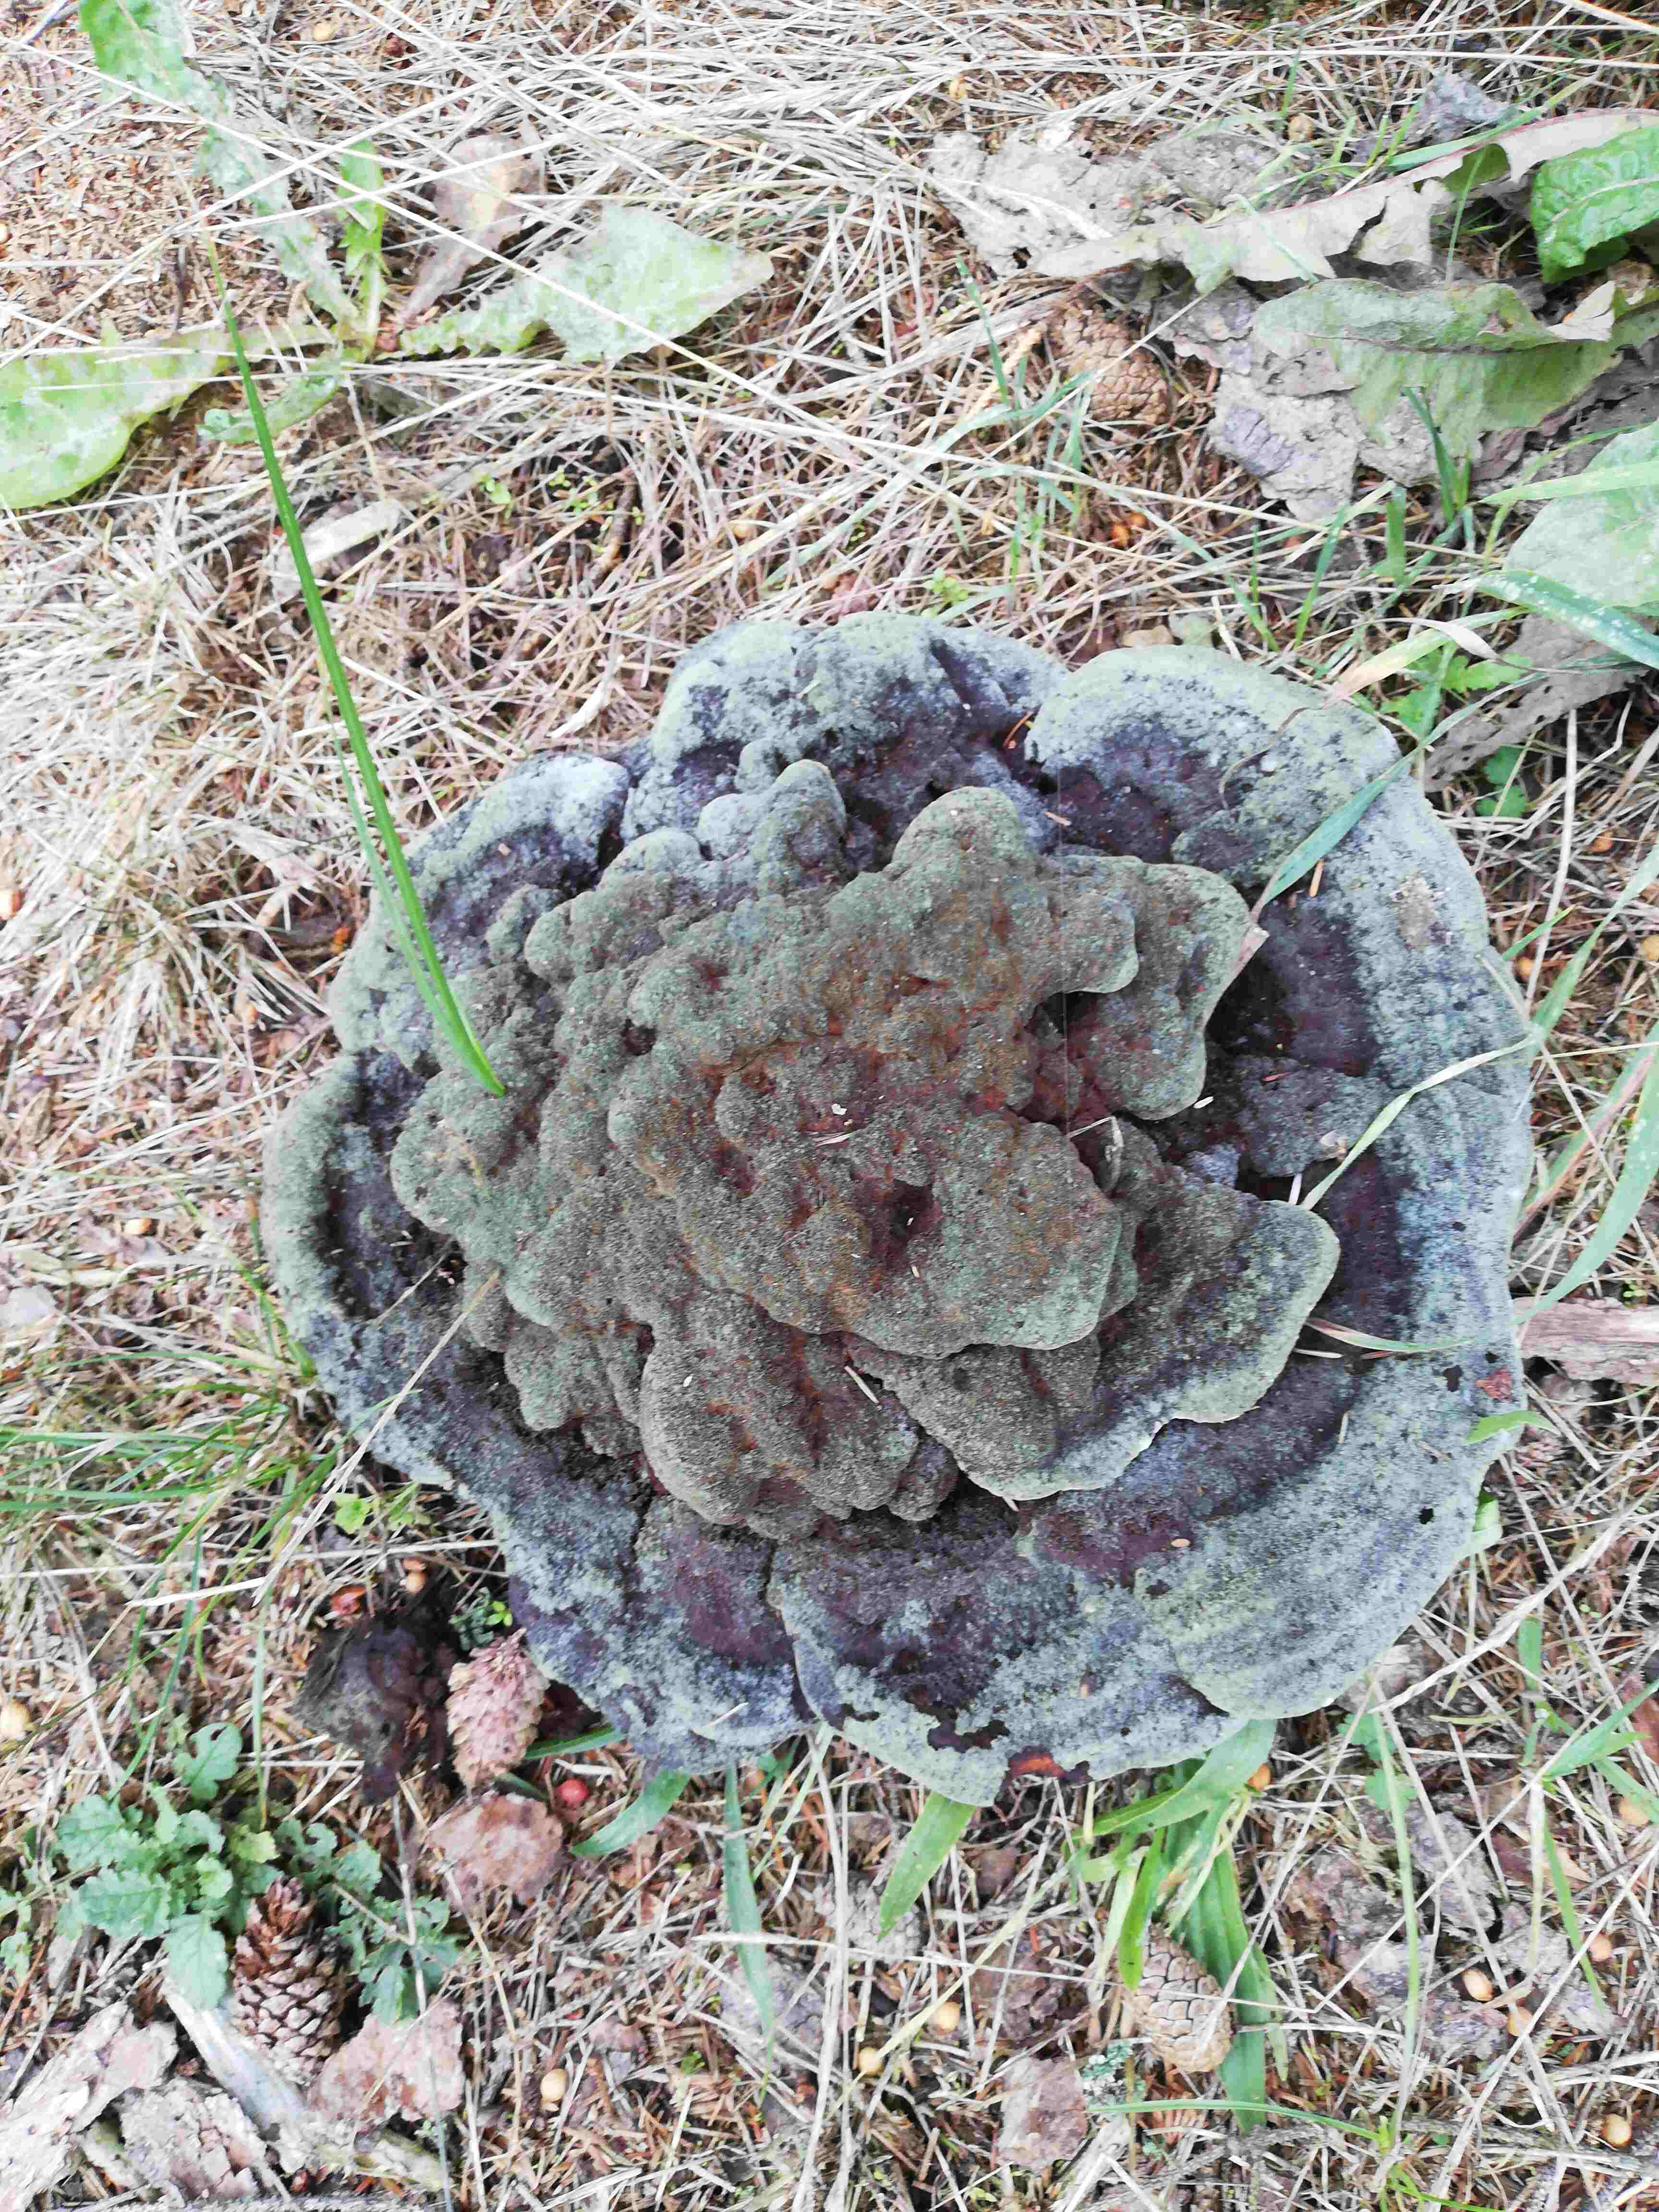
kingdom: Fungi
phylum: Basidiomycota
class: Agaricomycetes
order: Polyporales
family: Laetiporaceae
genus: Phaeolus
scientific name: Phaeolus schweinitzii
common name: brunporesvamp
